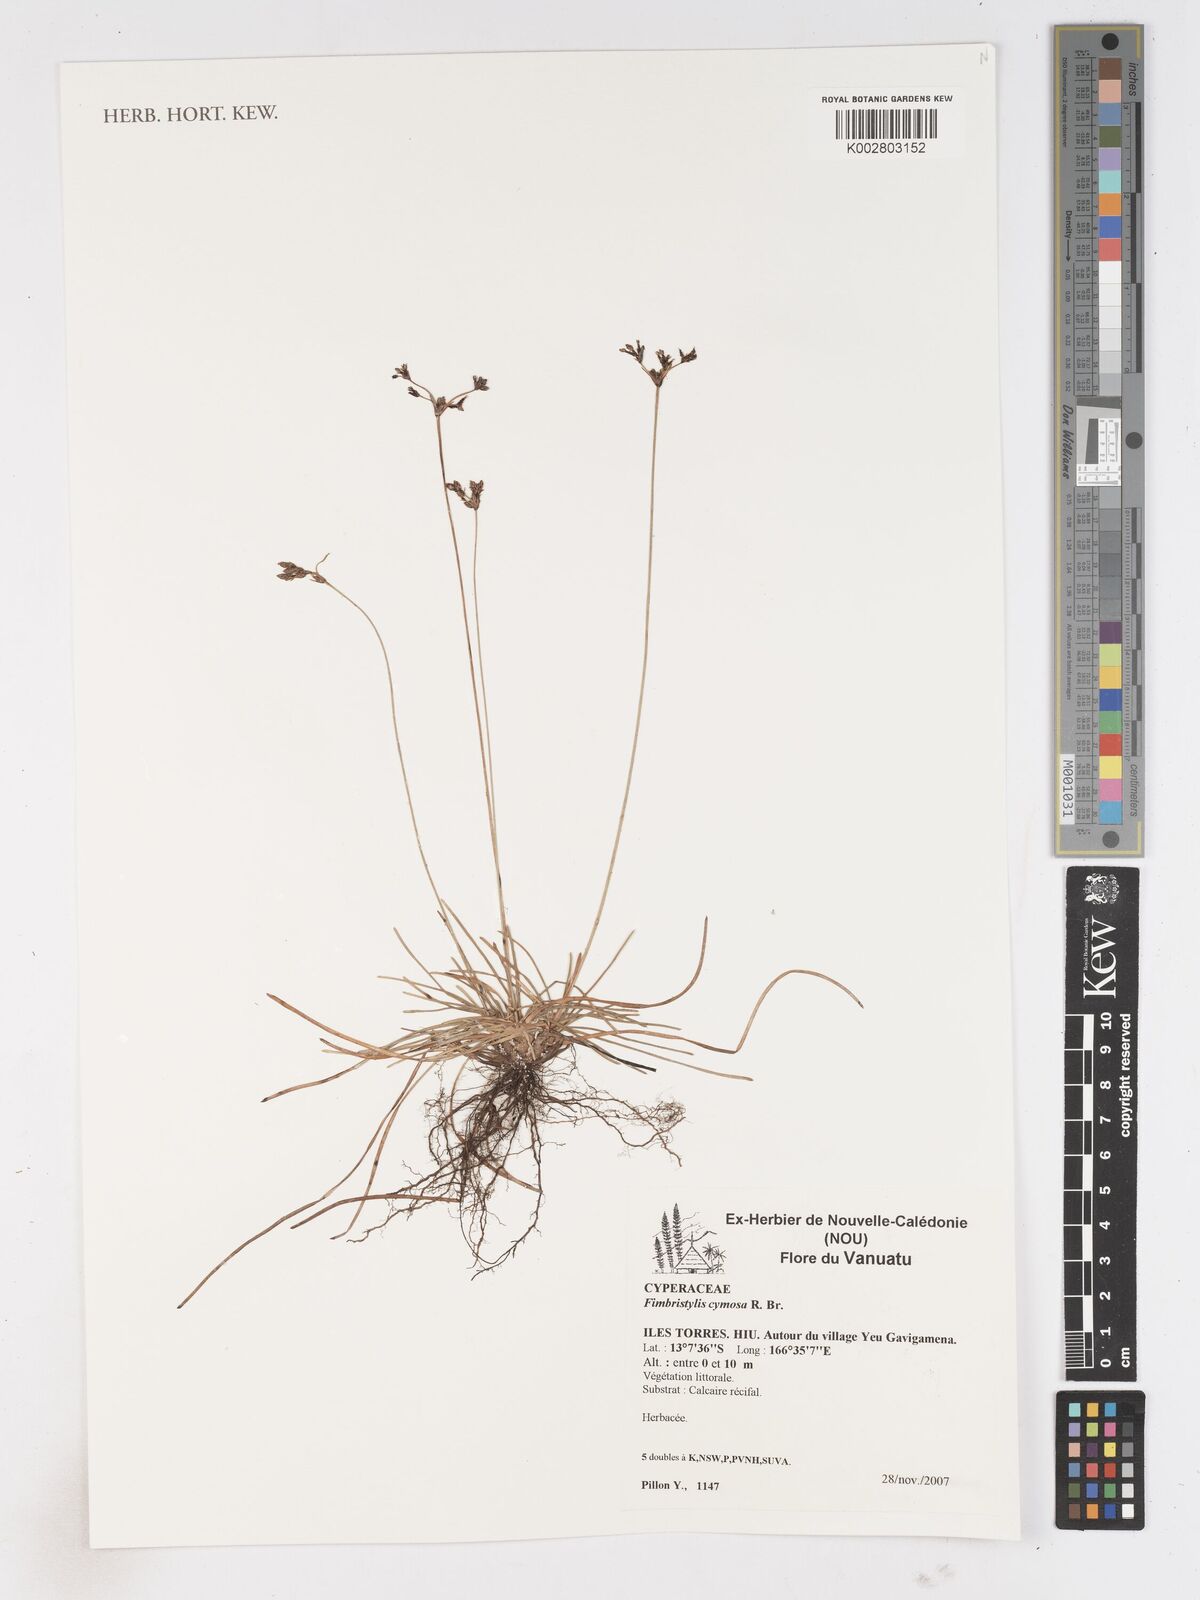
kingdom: Plantae
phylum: Tracheophyta
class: Liliopsida
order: Poales
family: Cyperaceae
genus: Fimbristylis
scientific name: Fimbristylis cymosa
